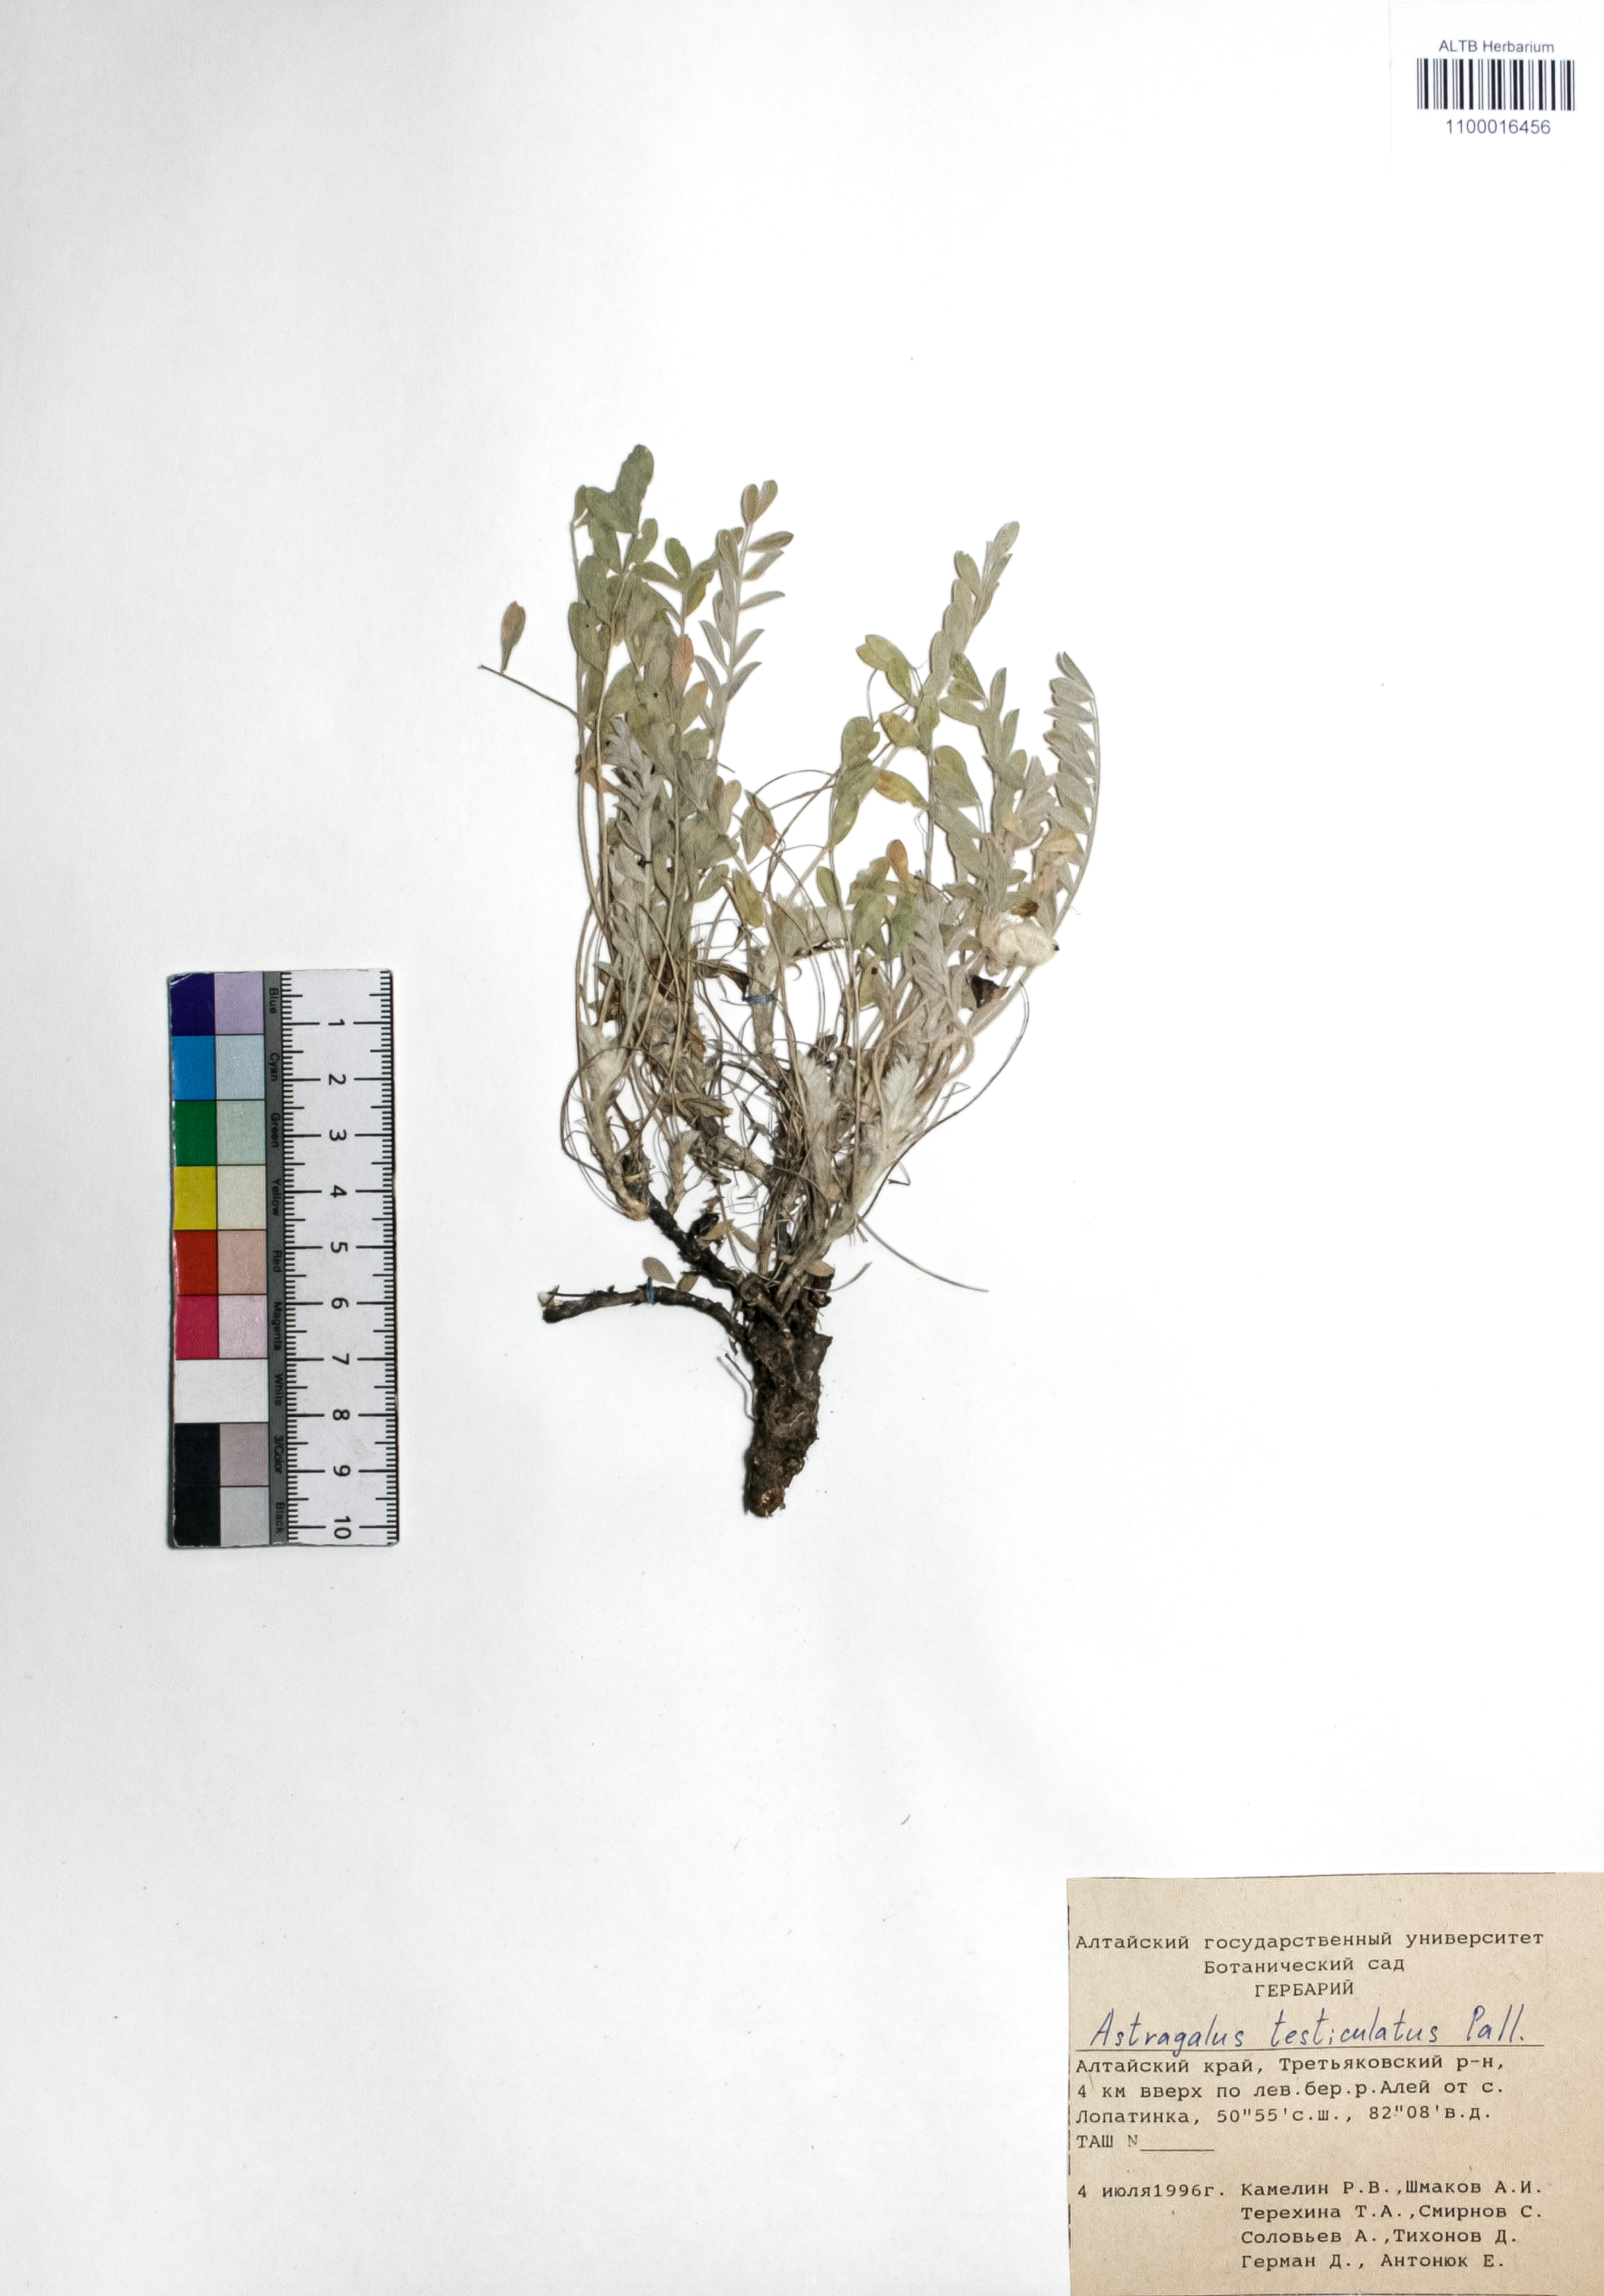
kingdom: Plantae
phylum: Tracheophyta
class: Magnoliopsida
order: Fabales
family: Fabaceae
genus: Astragalus
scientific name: Astragalus testiculatus
